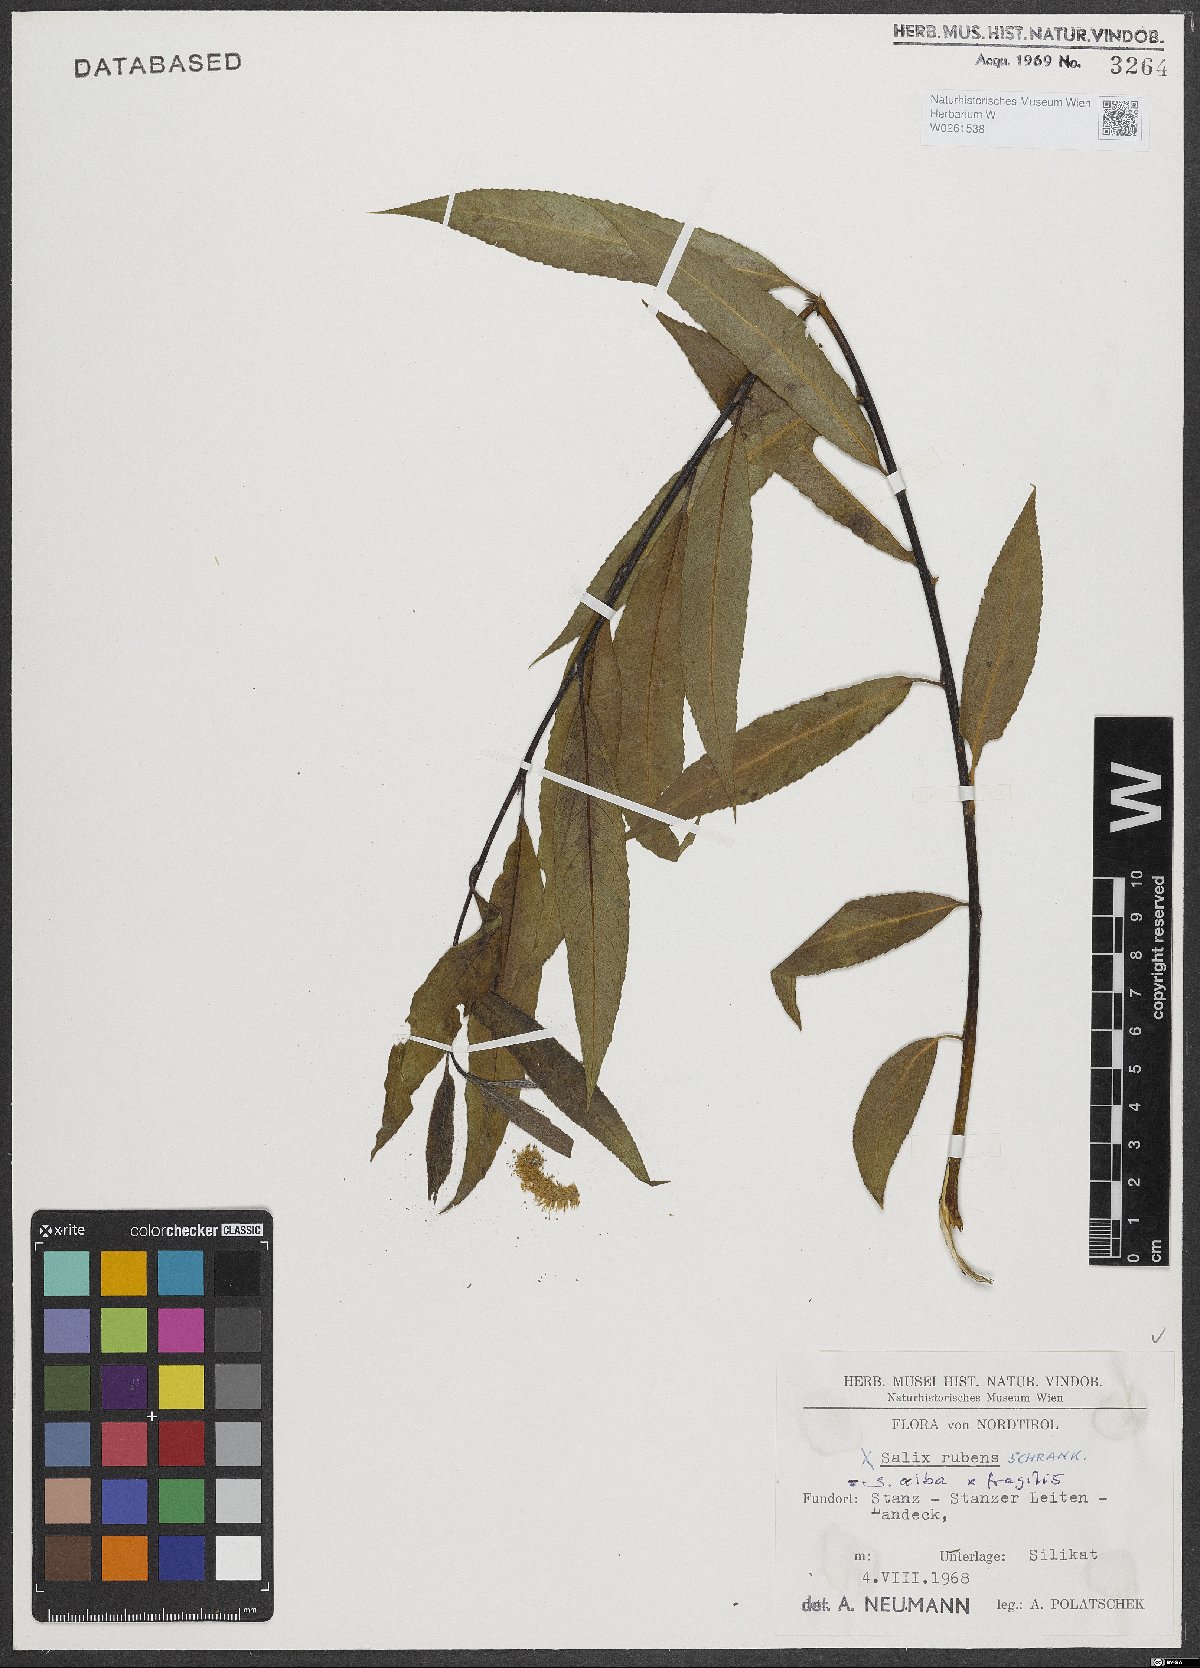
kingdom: Plantae
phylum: Tracheophyta
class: Magnoliopsida
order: Malpighiales
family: Salicaceae
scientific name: Salicaceae
